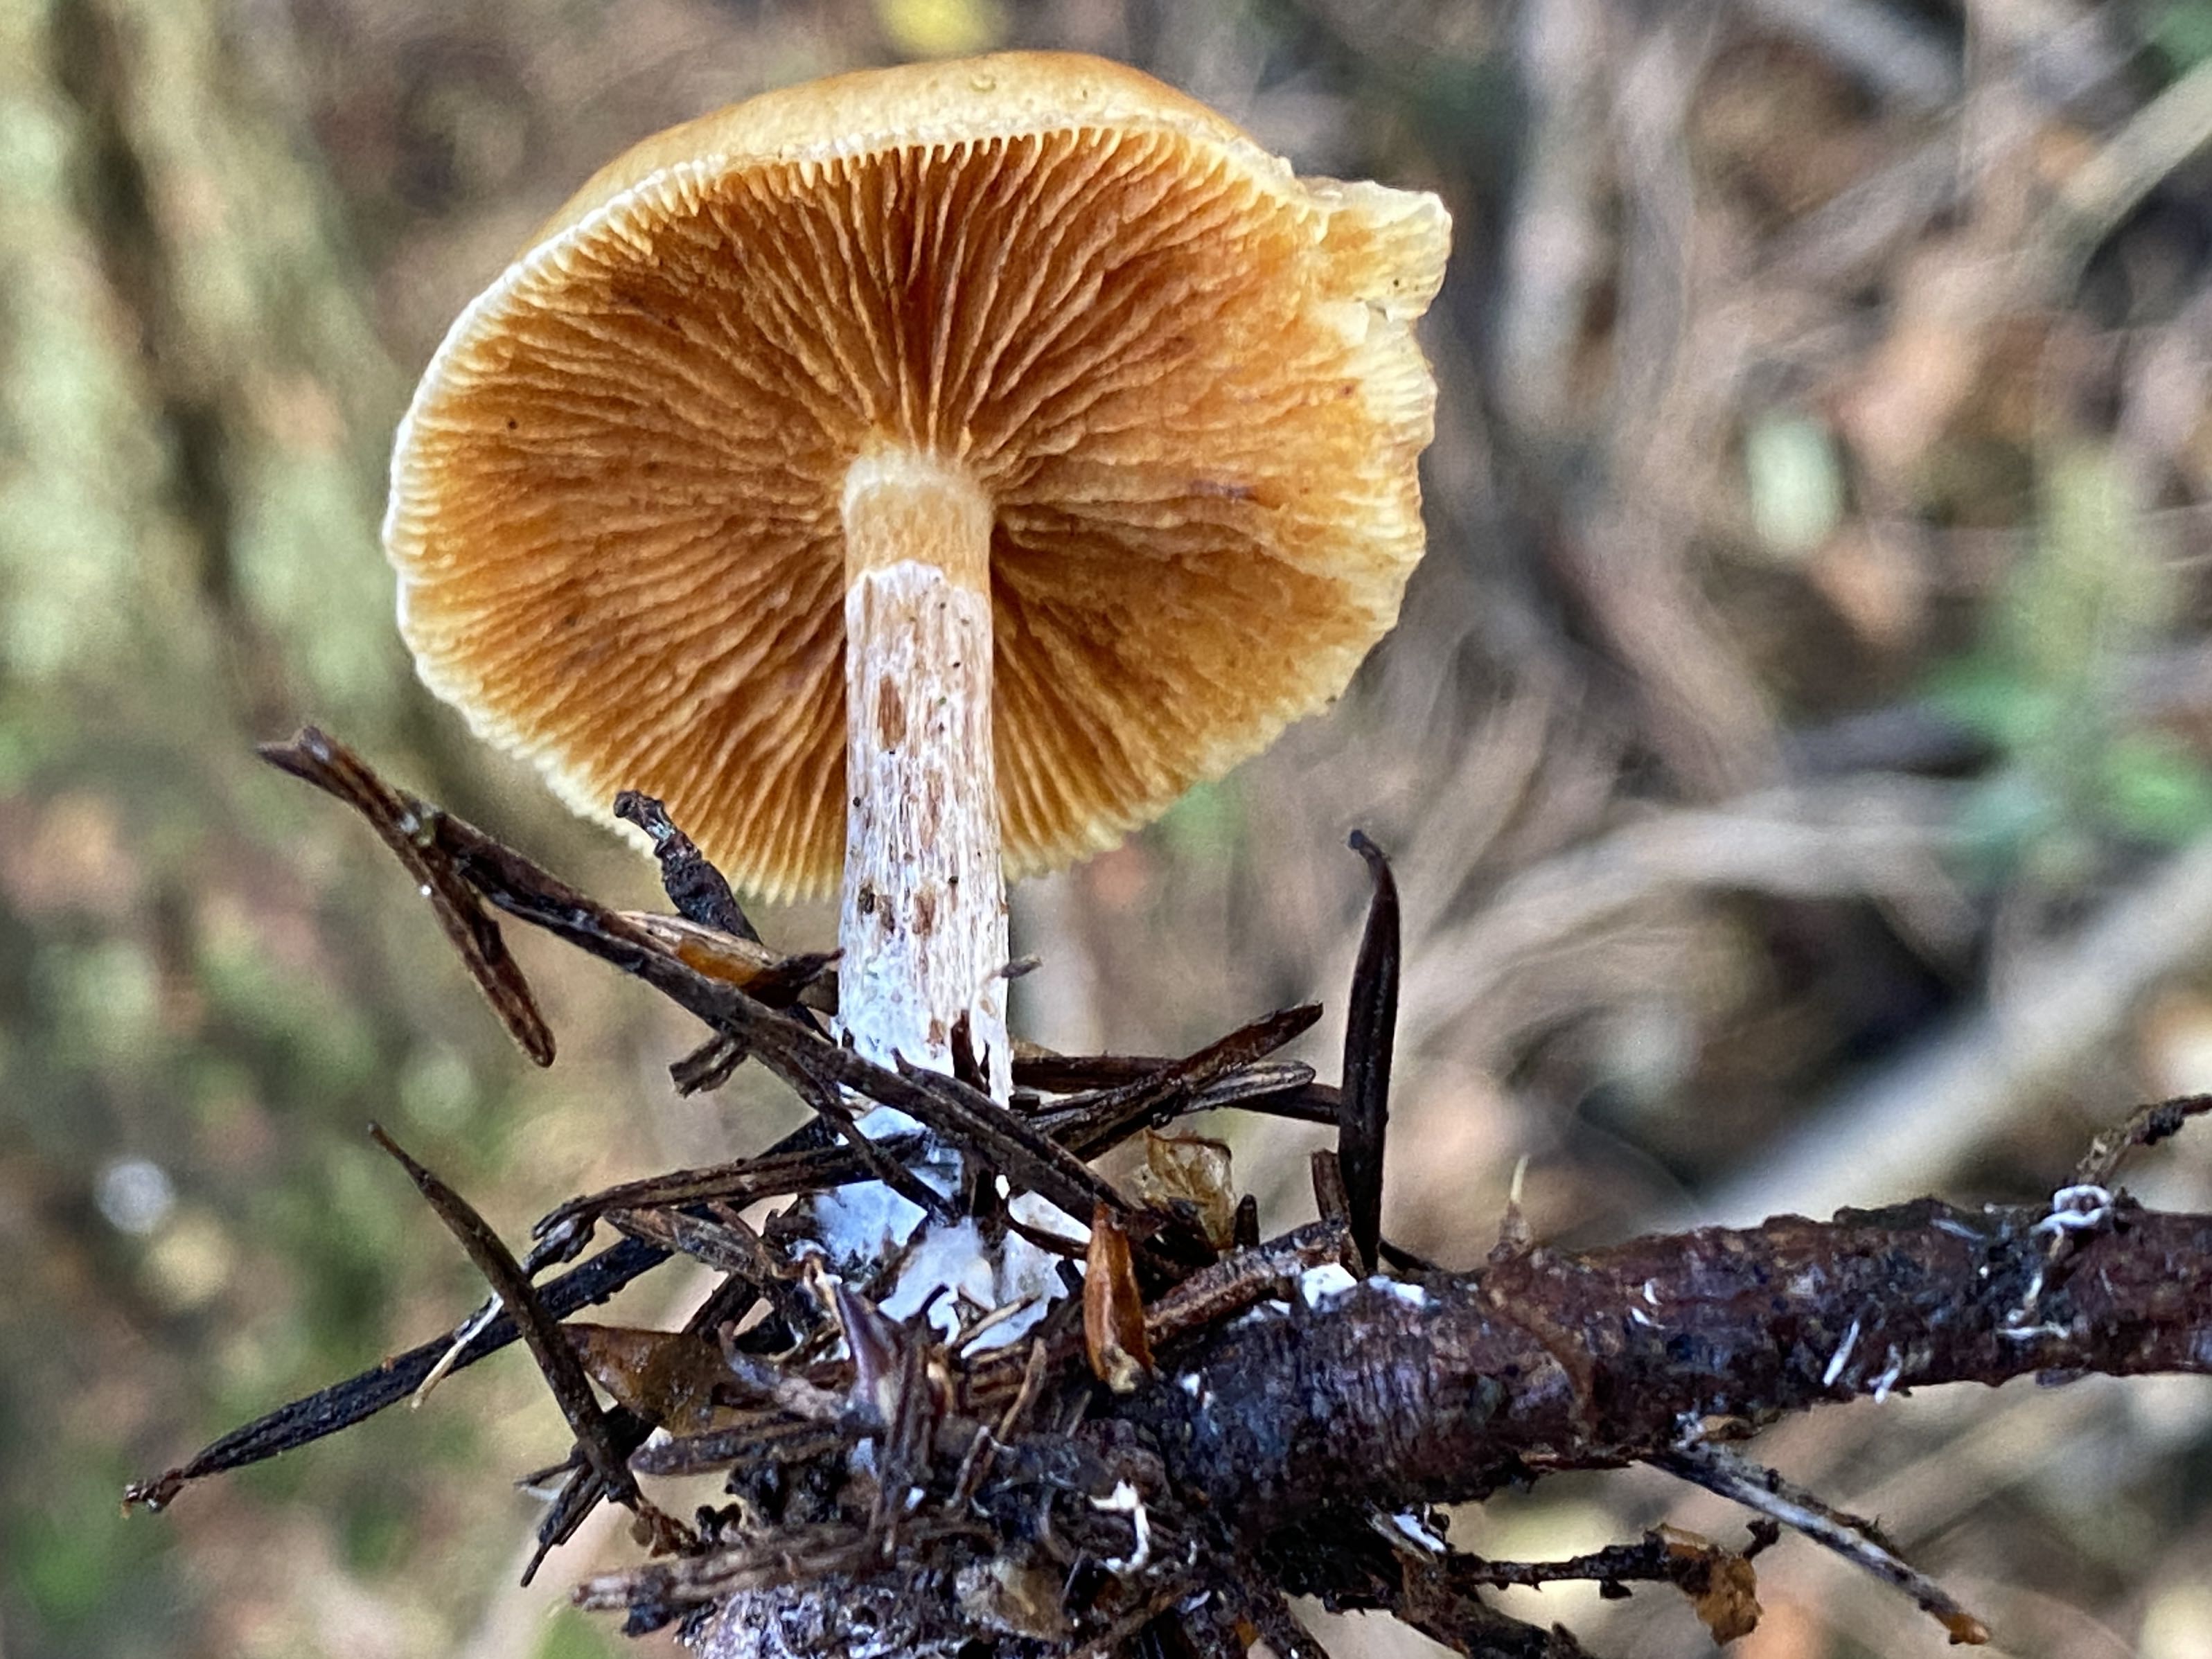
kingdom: Fungi
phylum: Basidiomycota
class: Agaricomycetes
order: Agaricales
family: Hymenogastraceae
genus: Gymnopilus
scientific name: Gymnopilus penetrans
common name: plettet flammehat
